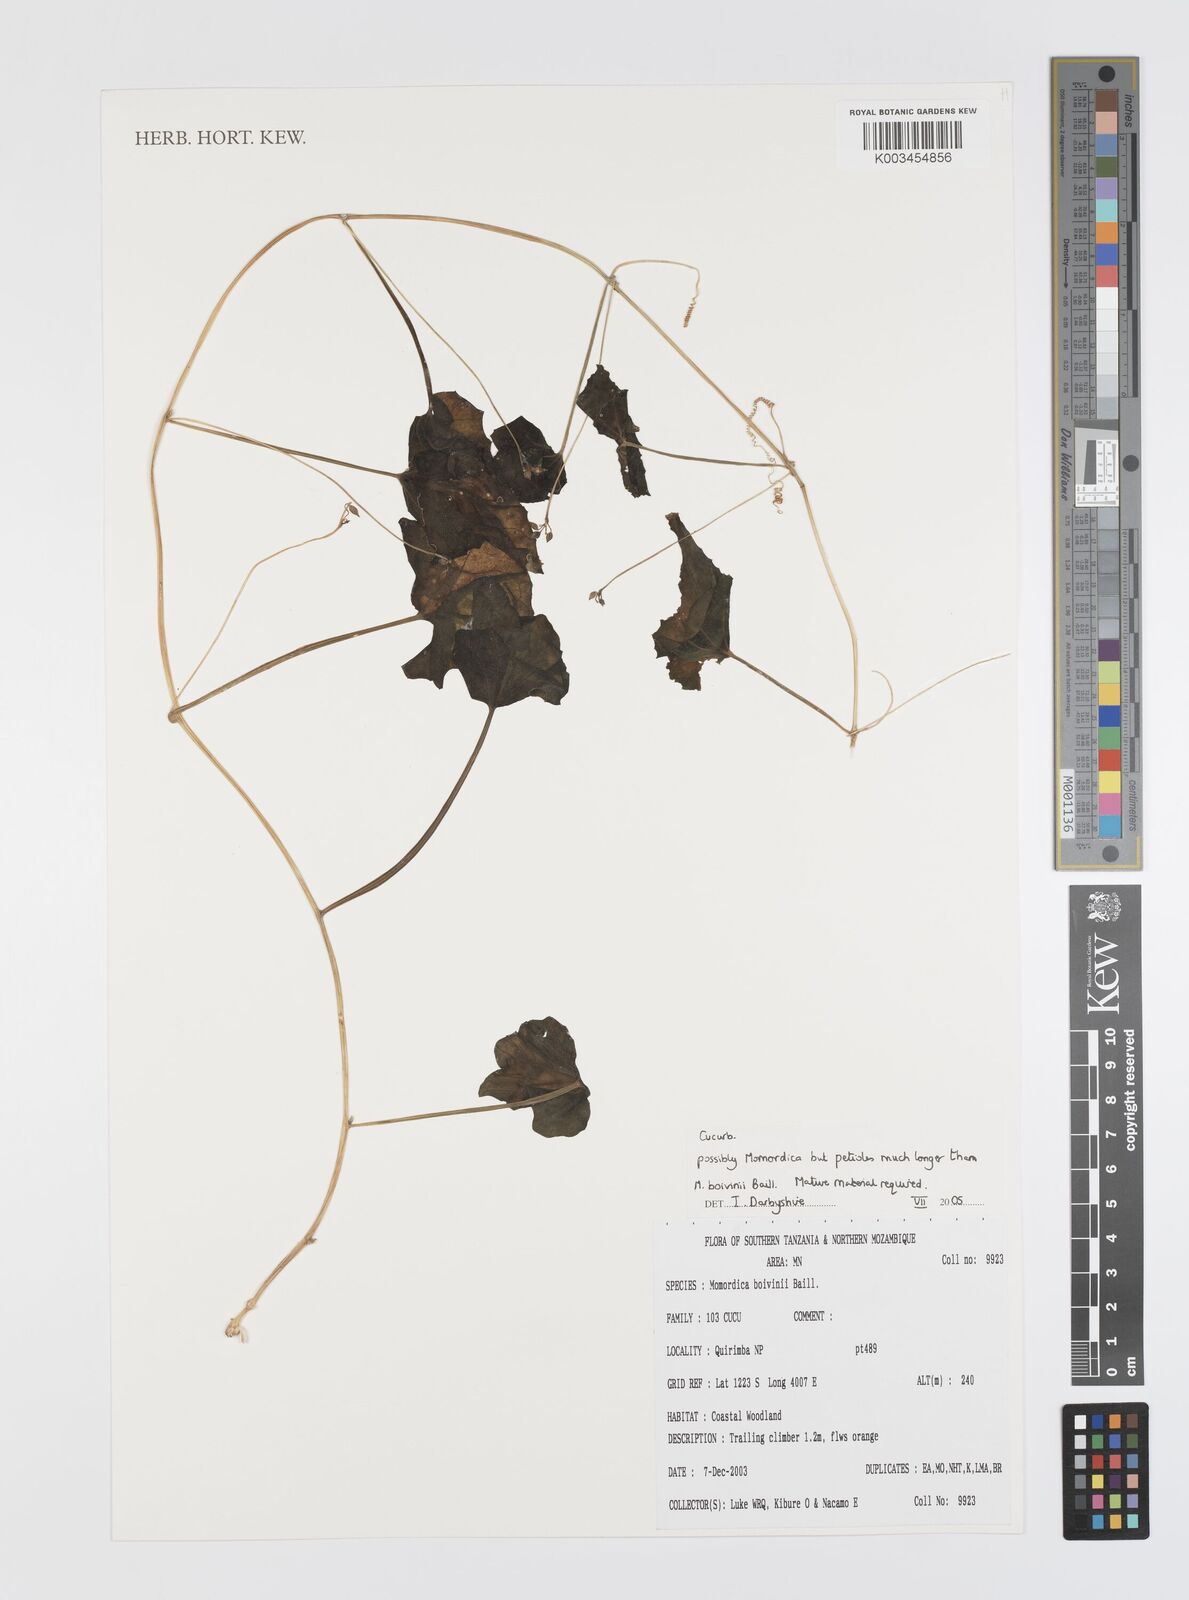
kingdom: Plantae
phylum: Tracheophyta
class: Magnoliopsida
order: Cucurbitales
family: Cucurbitaceae
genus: Momordica
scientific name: Momordica boivinii
